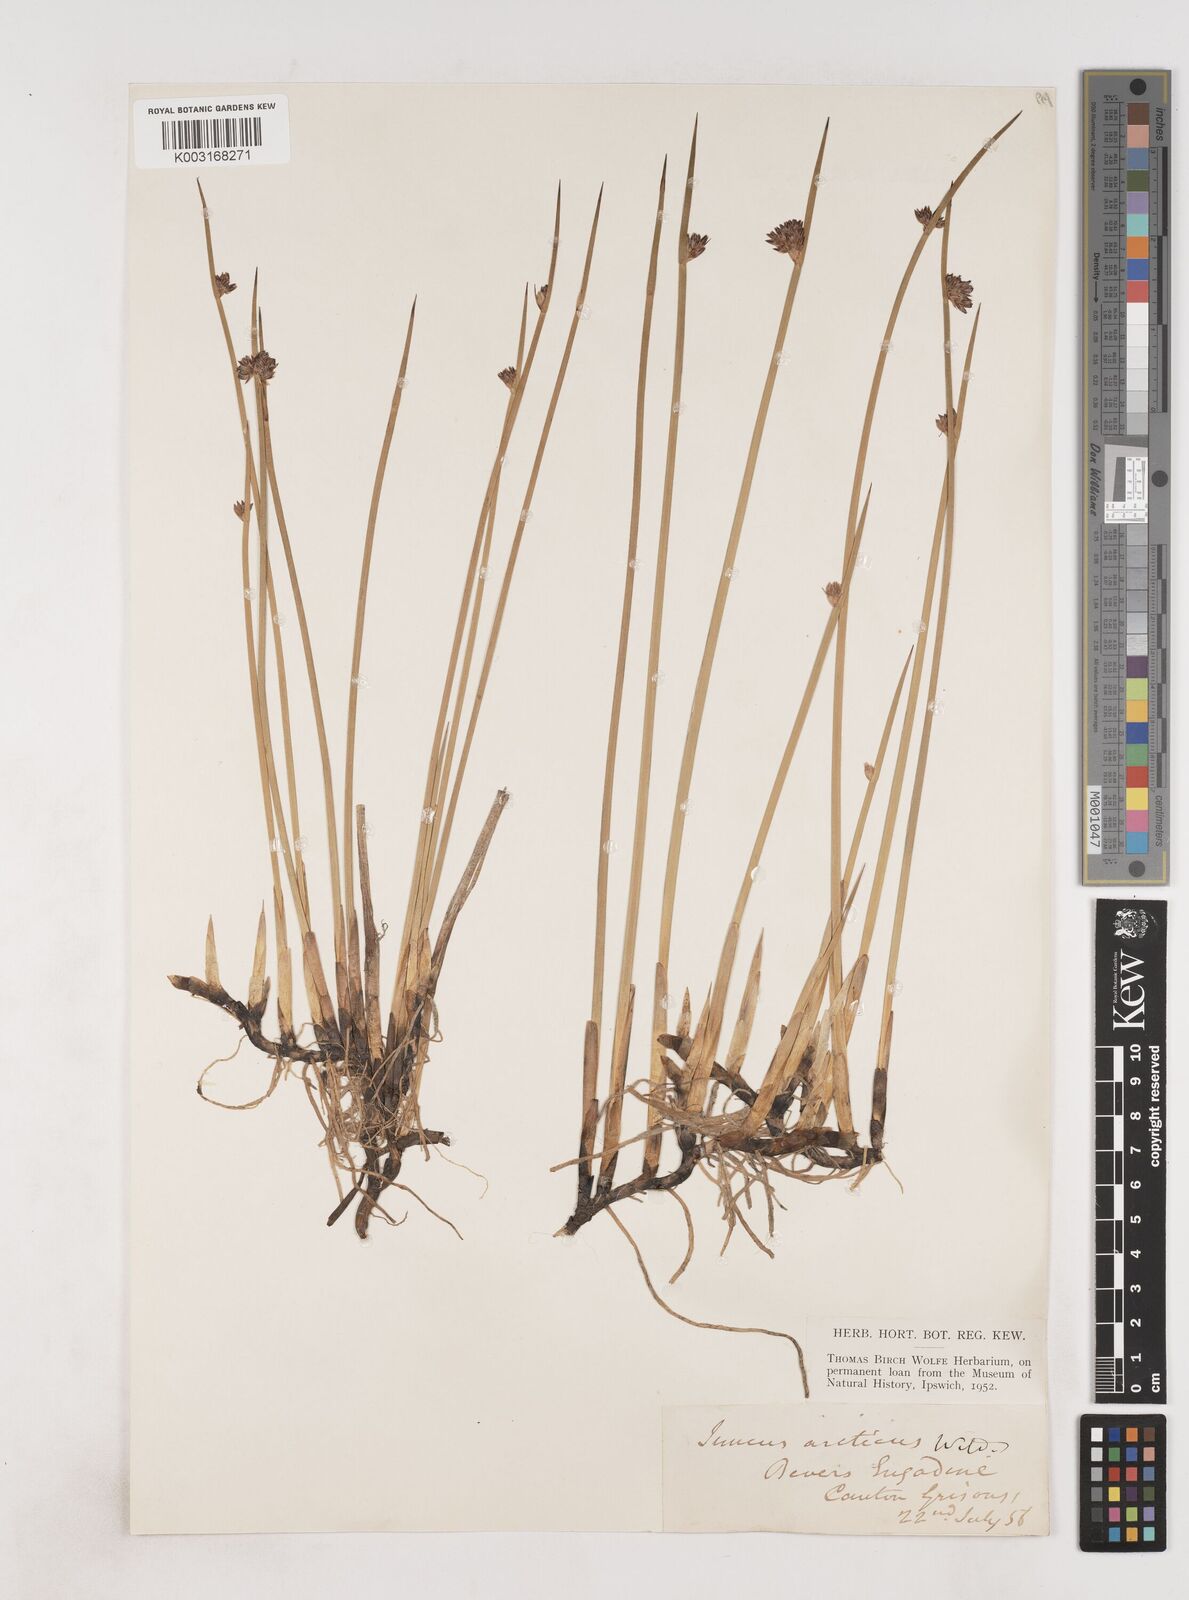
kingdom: Plantae
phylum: Tracheophyta
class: Liliopsida
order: Poales
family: Juncaceae
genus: Juncus
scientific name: Juncus arcticus
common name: Arctic rush
